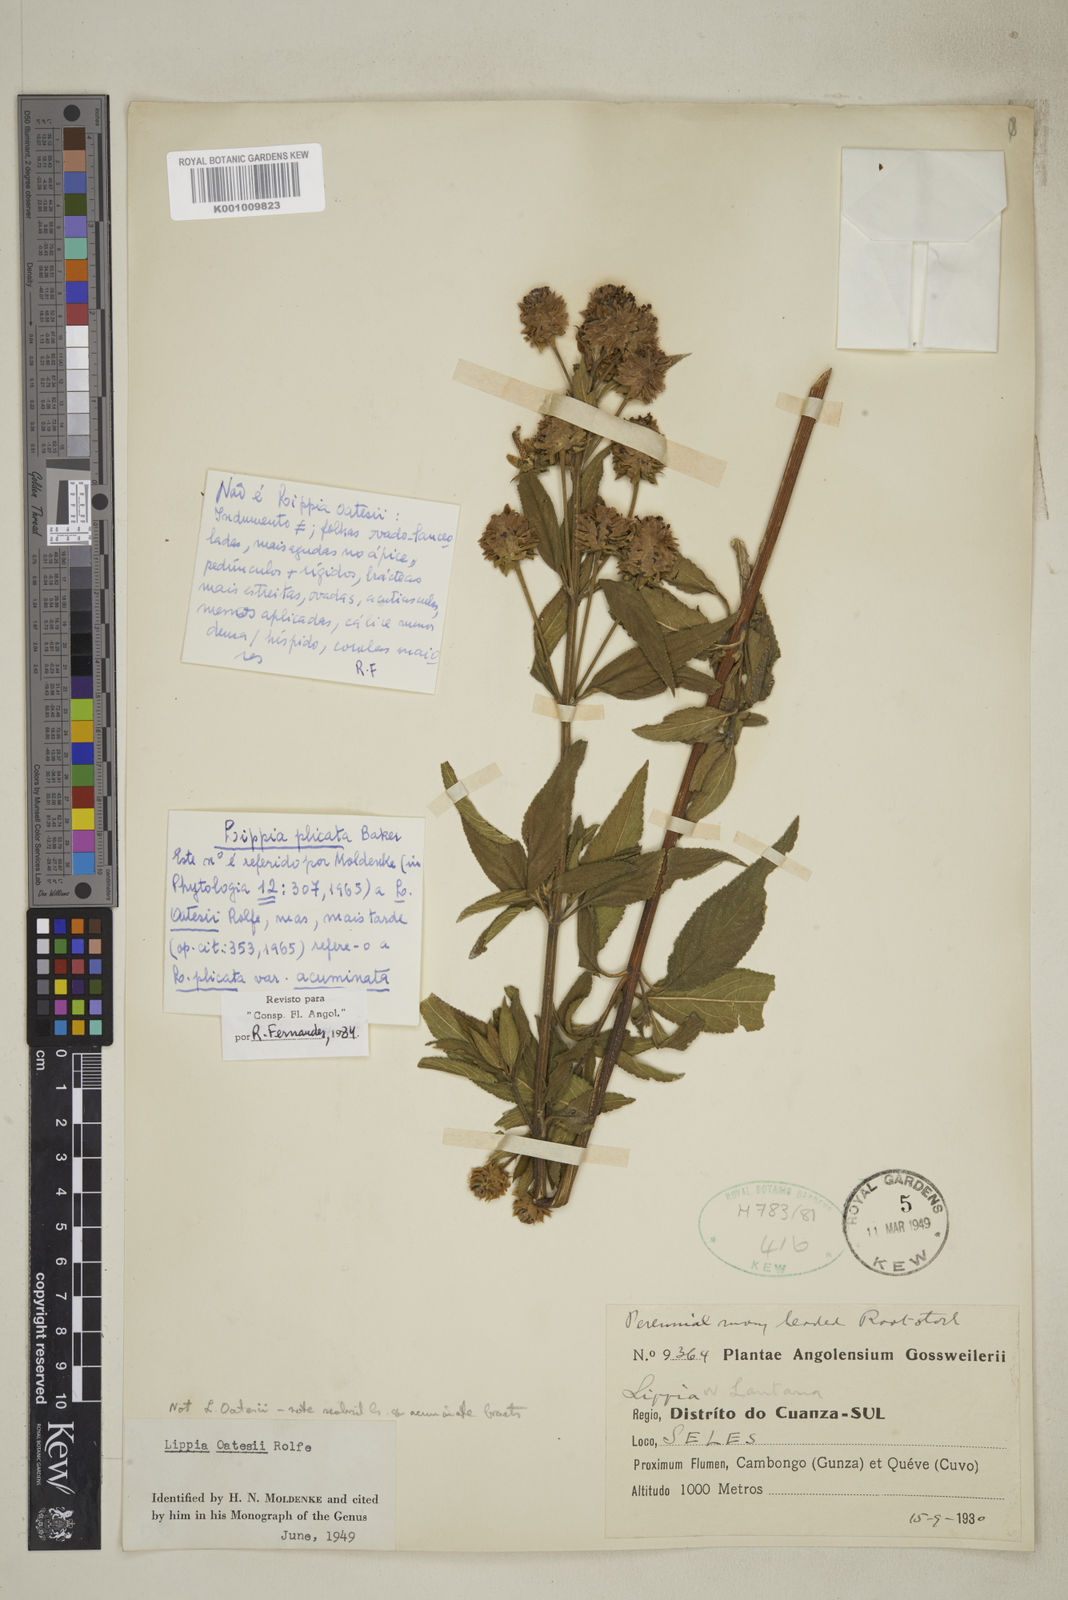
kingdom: Plantae
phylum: Tracheophyta
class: Magnoliopsida
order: Lamiales
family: Verbenaceae
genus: Lippia
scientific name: Lippia plicata
